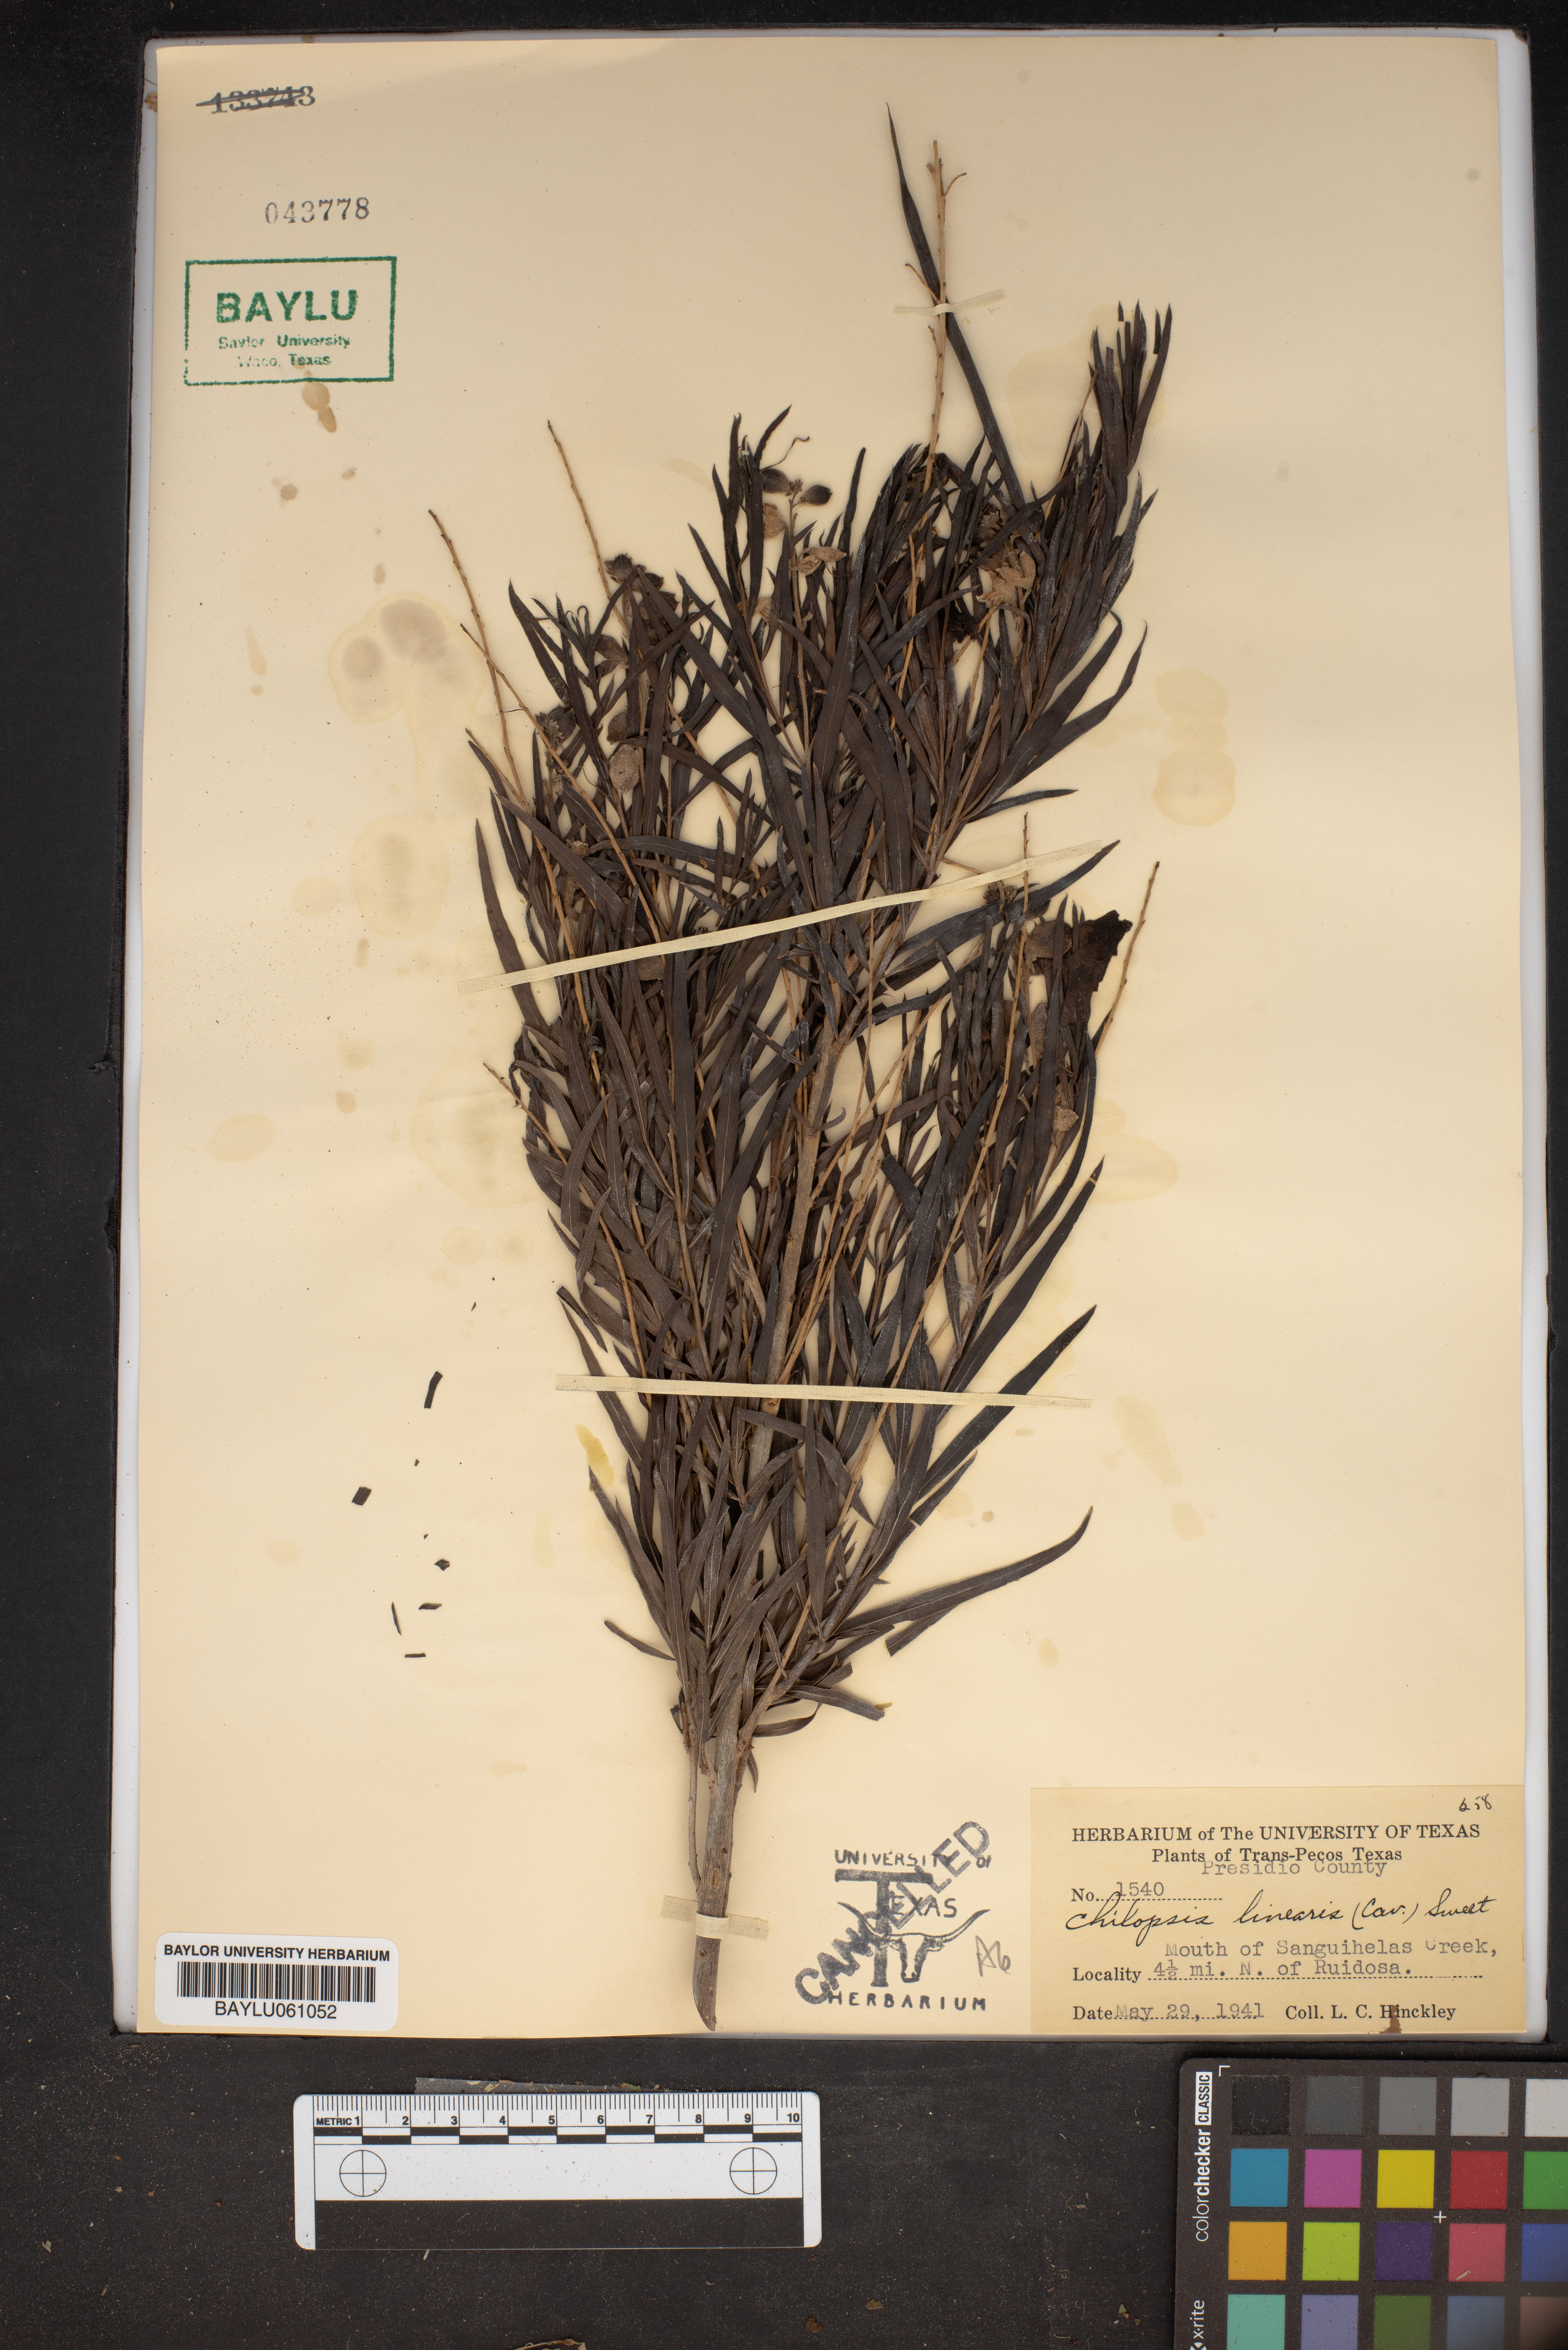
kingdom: Plantae
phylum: Tracheophyta
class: Magnoliopsida
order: Lamiales
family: Bignoniaceae
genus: Chilopsis
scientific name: Chilopsis linearis
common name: Desert-willow
